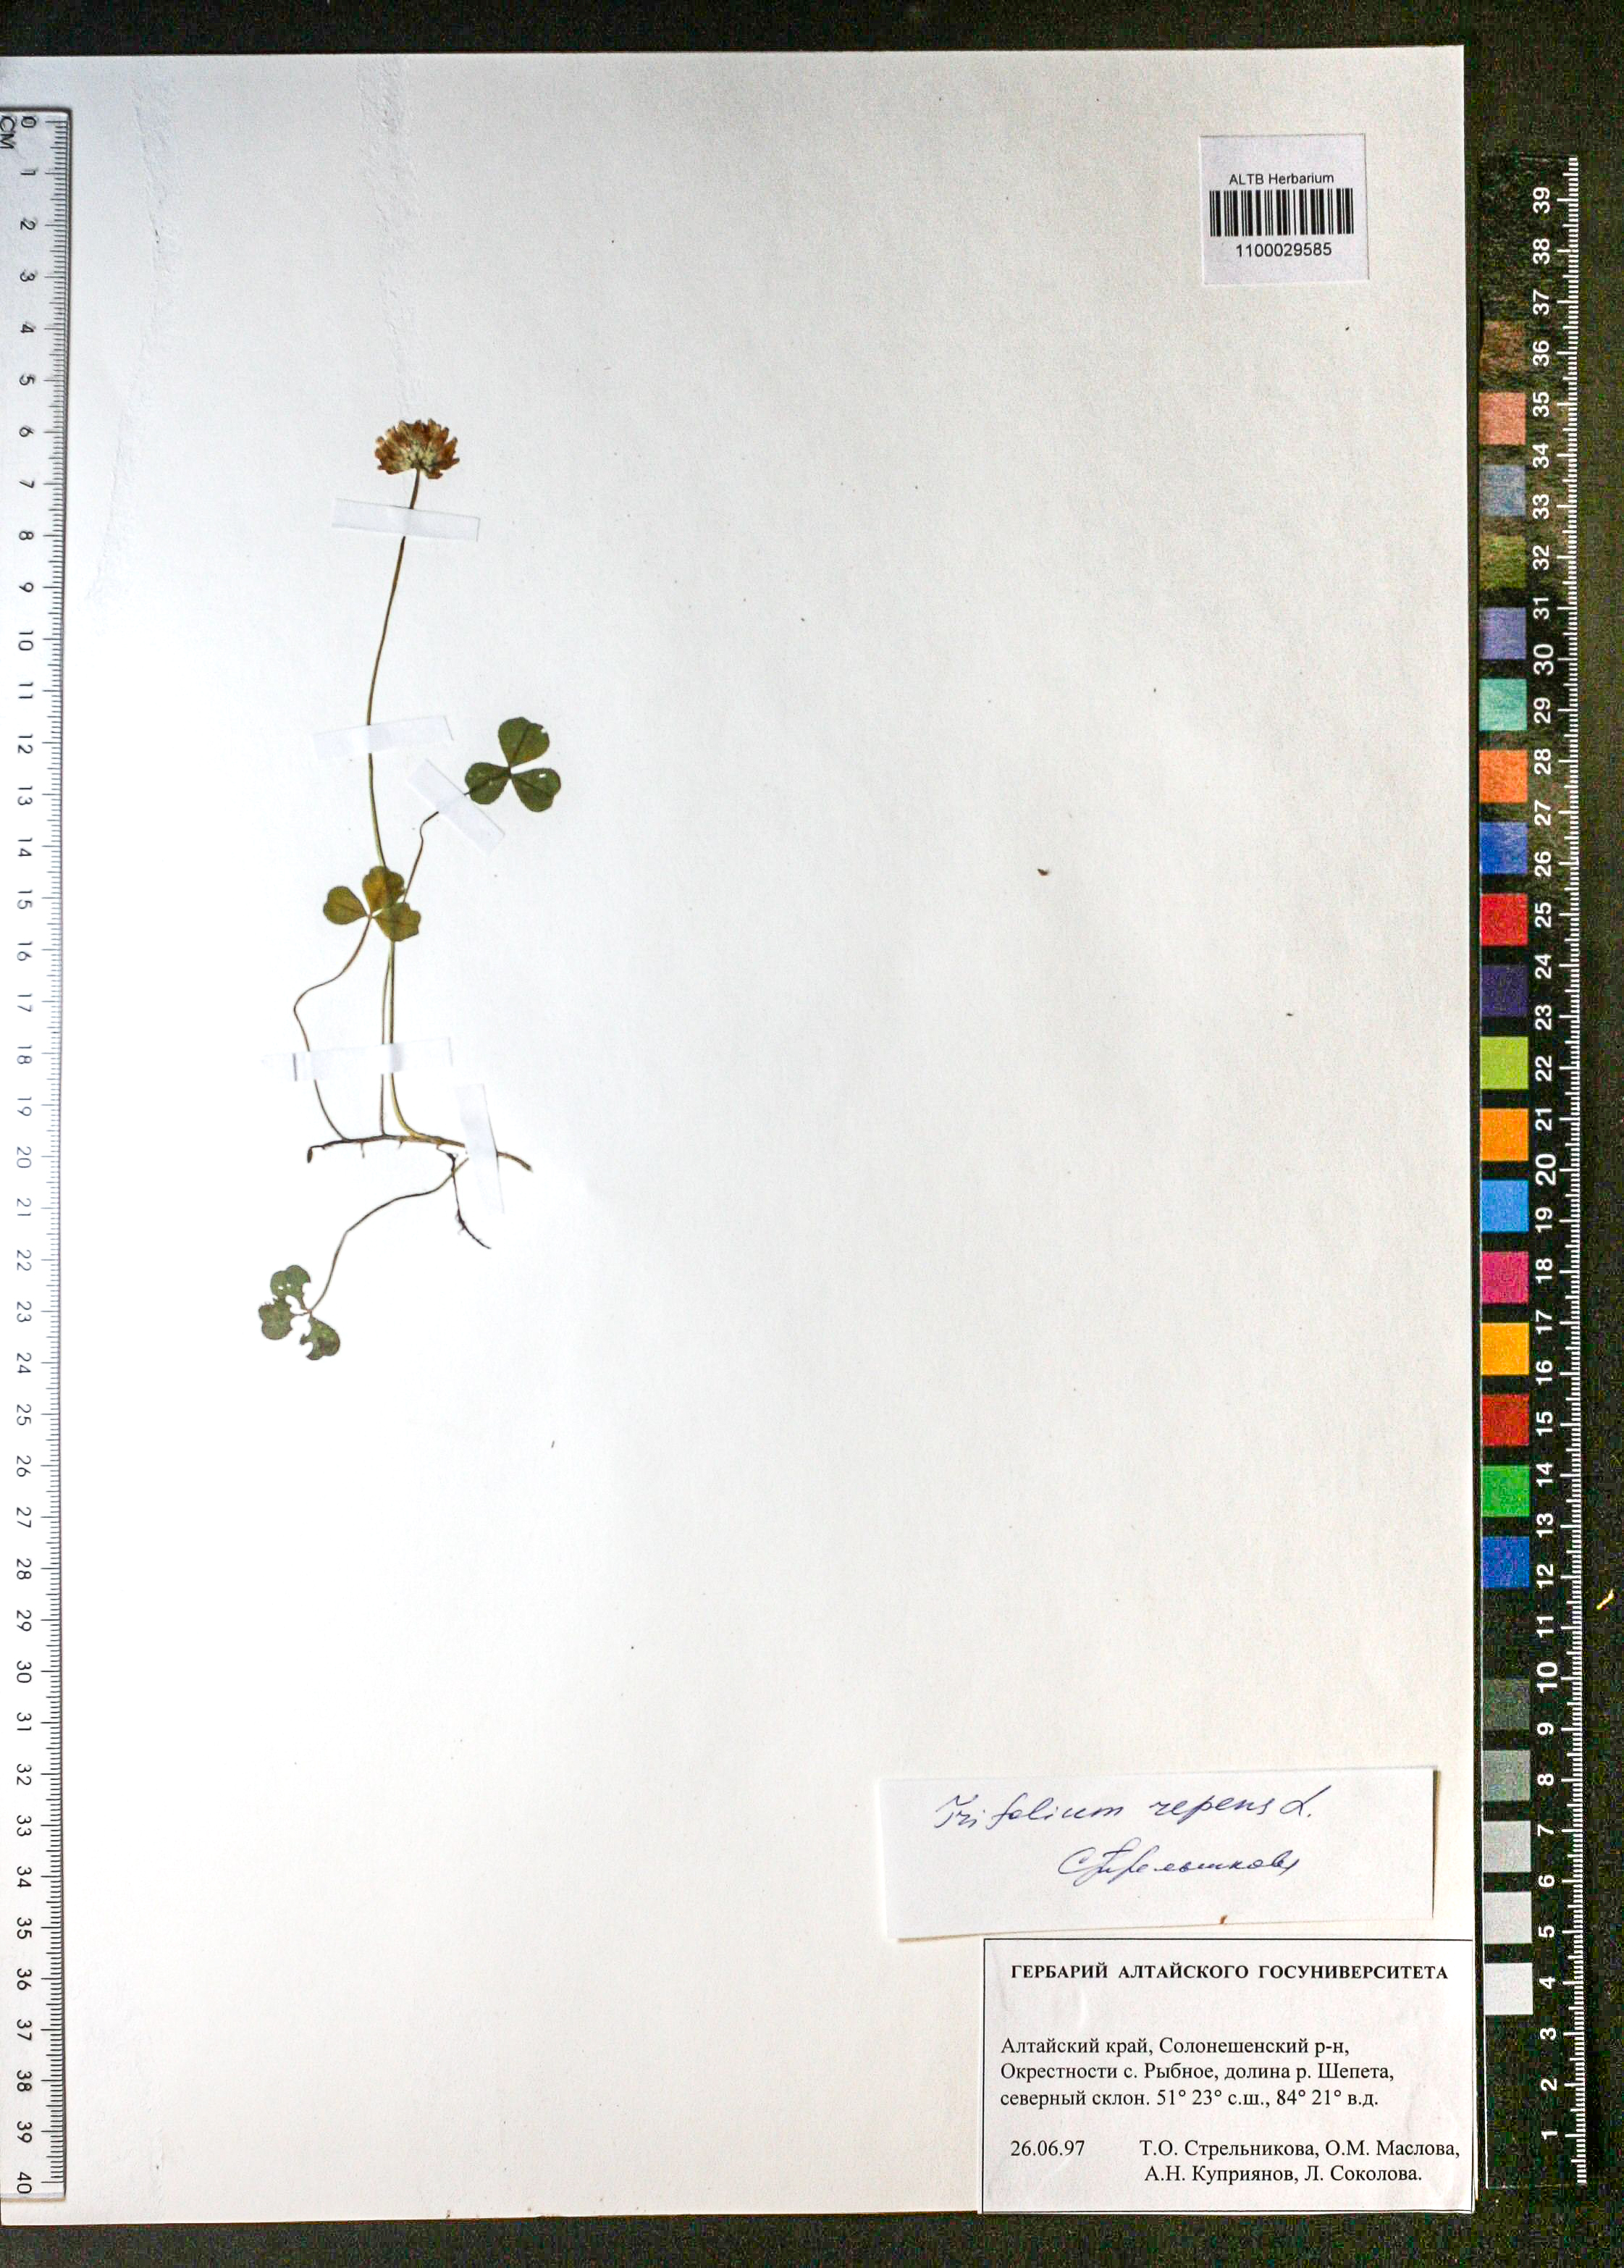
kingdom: Plantae
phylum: Tracheophyta
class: Magnoliopsida
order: Fabales
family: Fabaceae
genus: Trifolium
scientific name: Trifolium repens
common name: White clover
